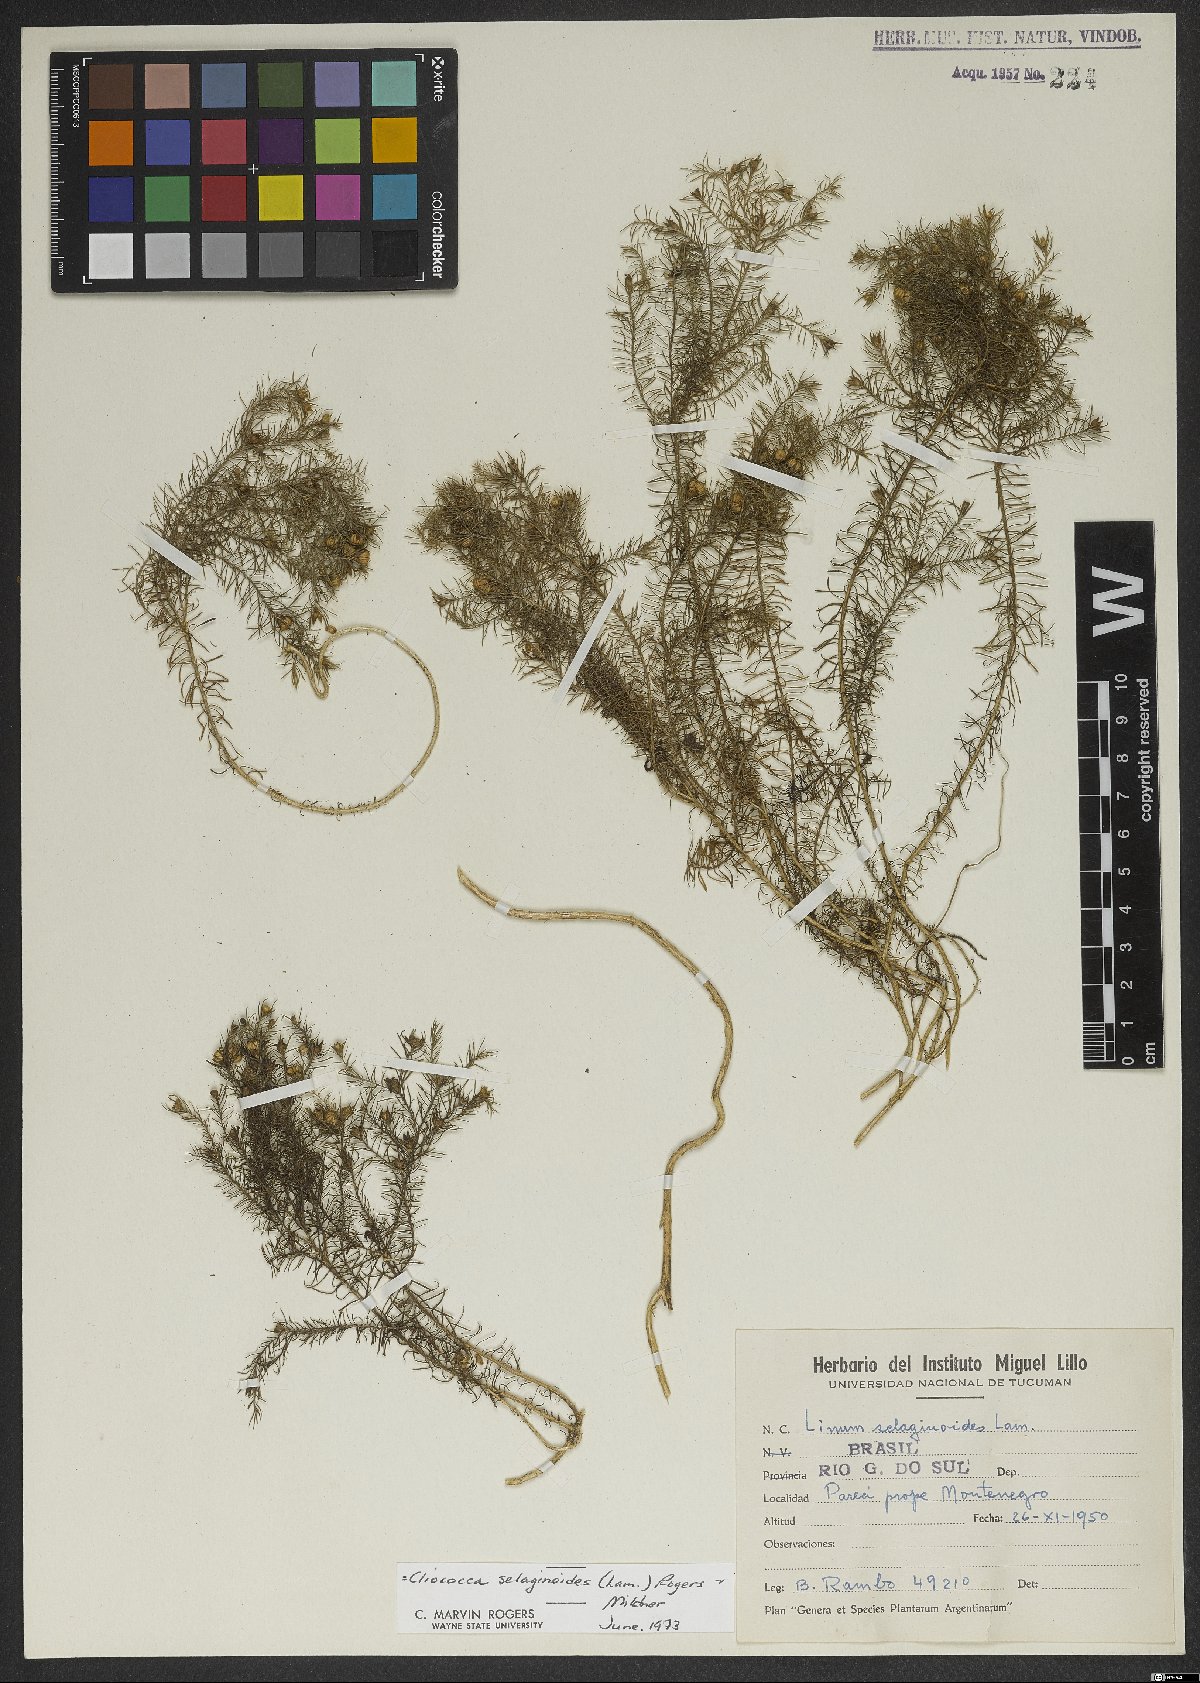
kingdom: Plantae
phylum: Tracheophyta
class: Magnoliopsida
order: Malpighiales
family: Linaceae
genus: Cliococca
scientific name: Cliococca selaginoides
